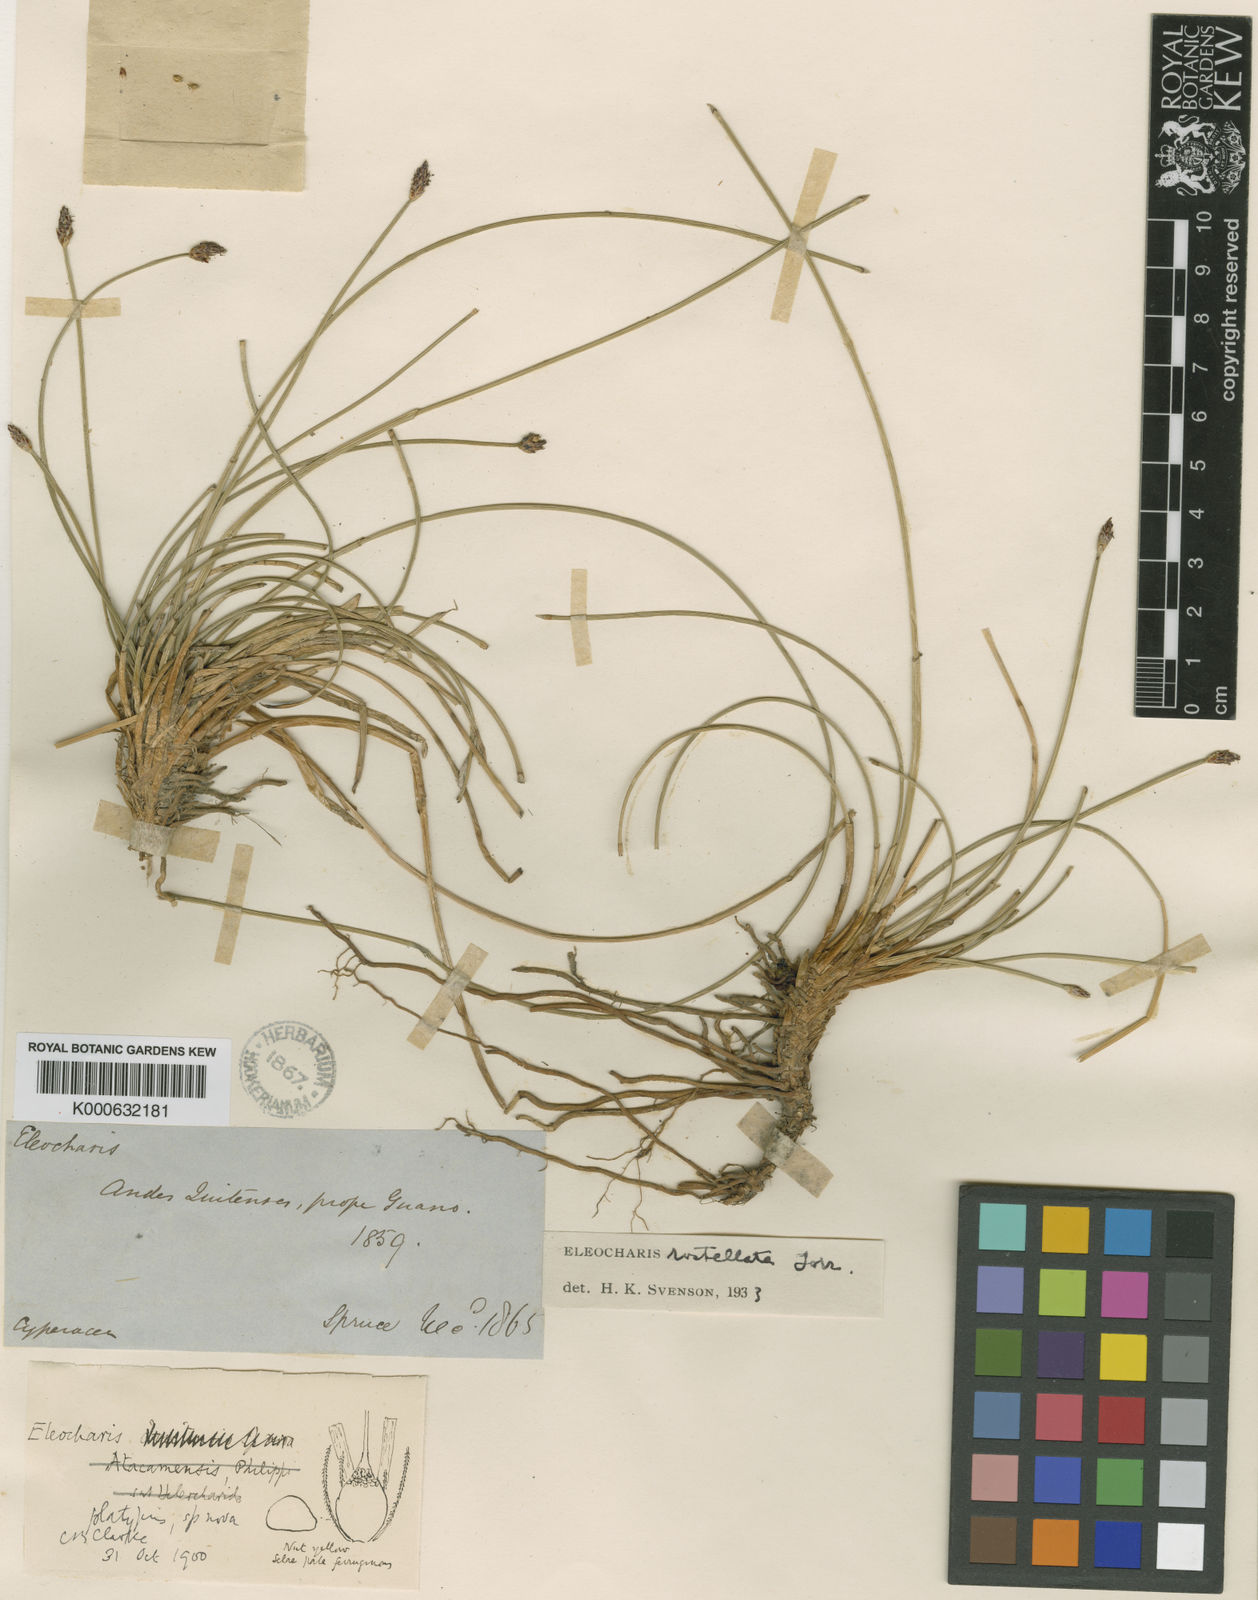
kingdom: Plantae
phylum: Tracheophyta
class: Liliopsida
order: Poales
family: Cyperaceae
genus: Eleocharis
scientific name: Eleocharis rostellata
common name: Walking sedge
